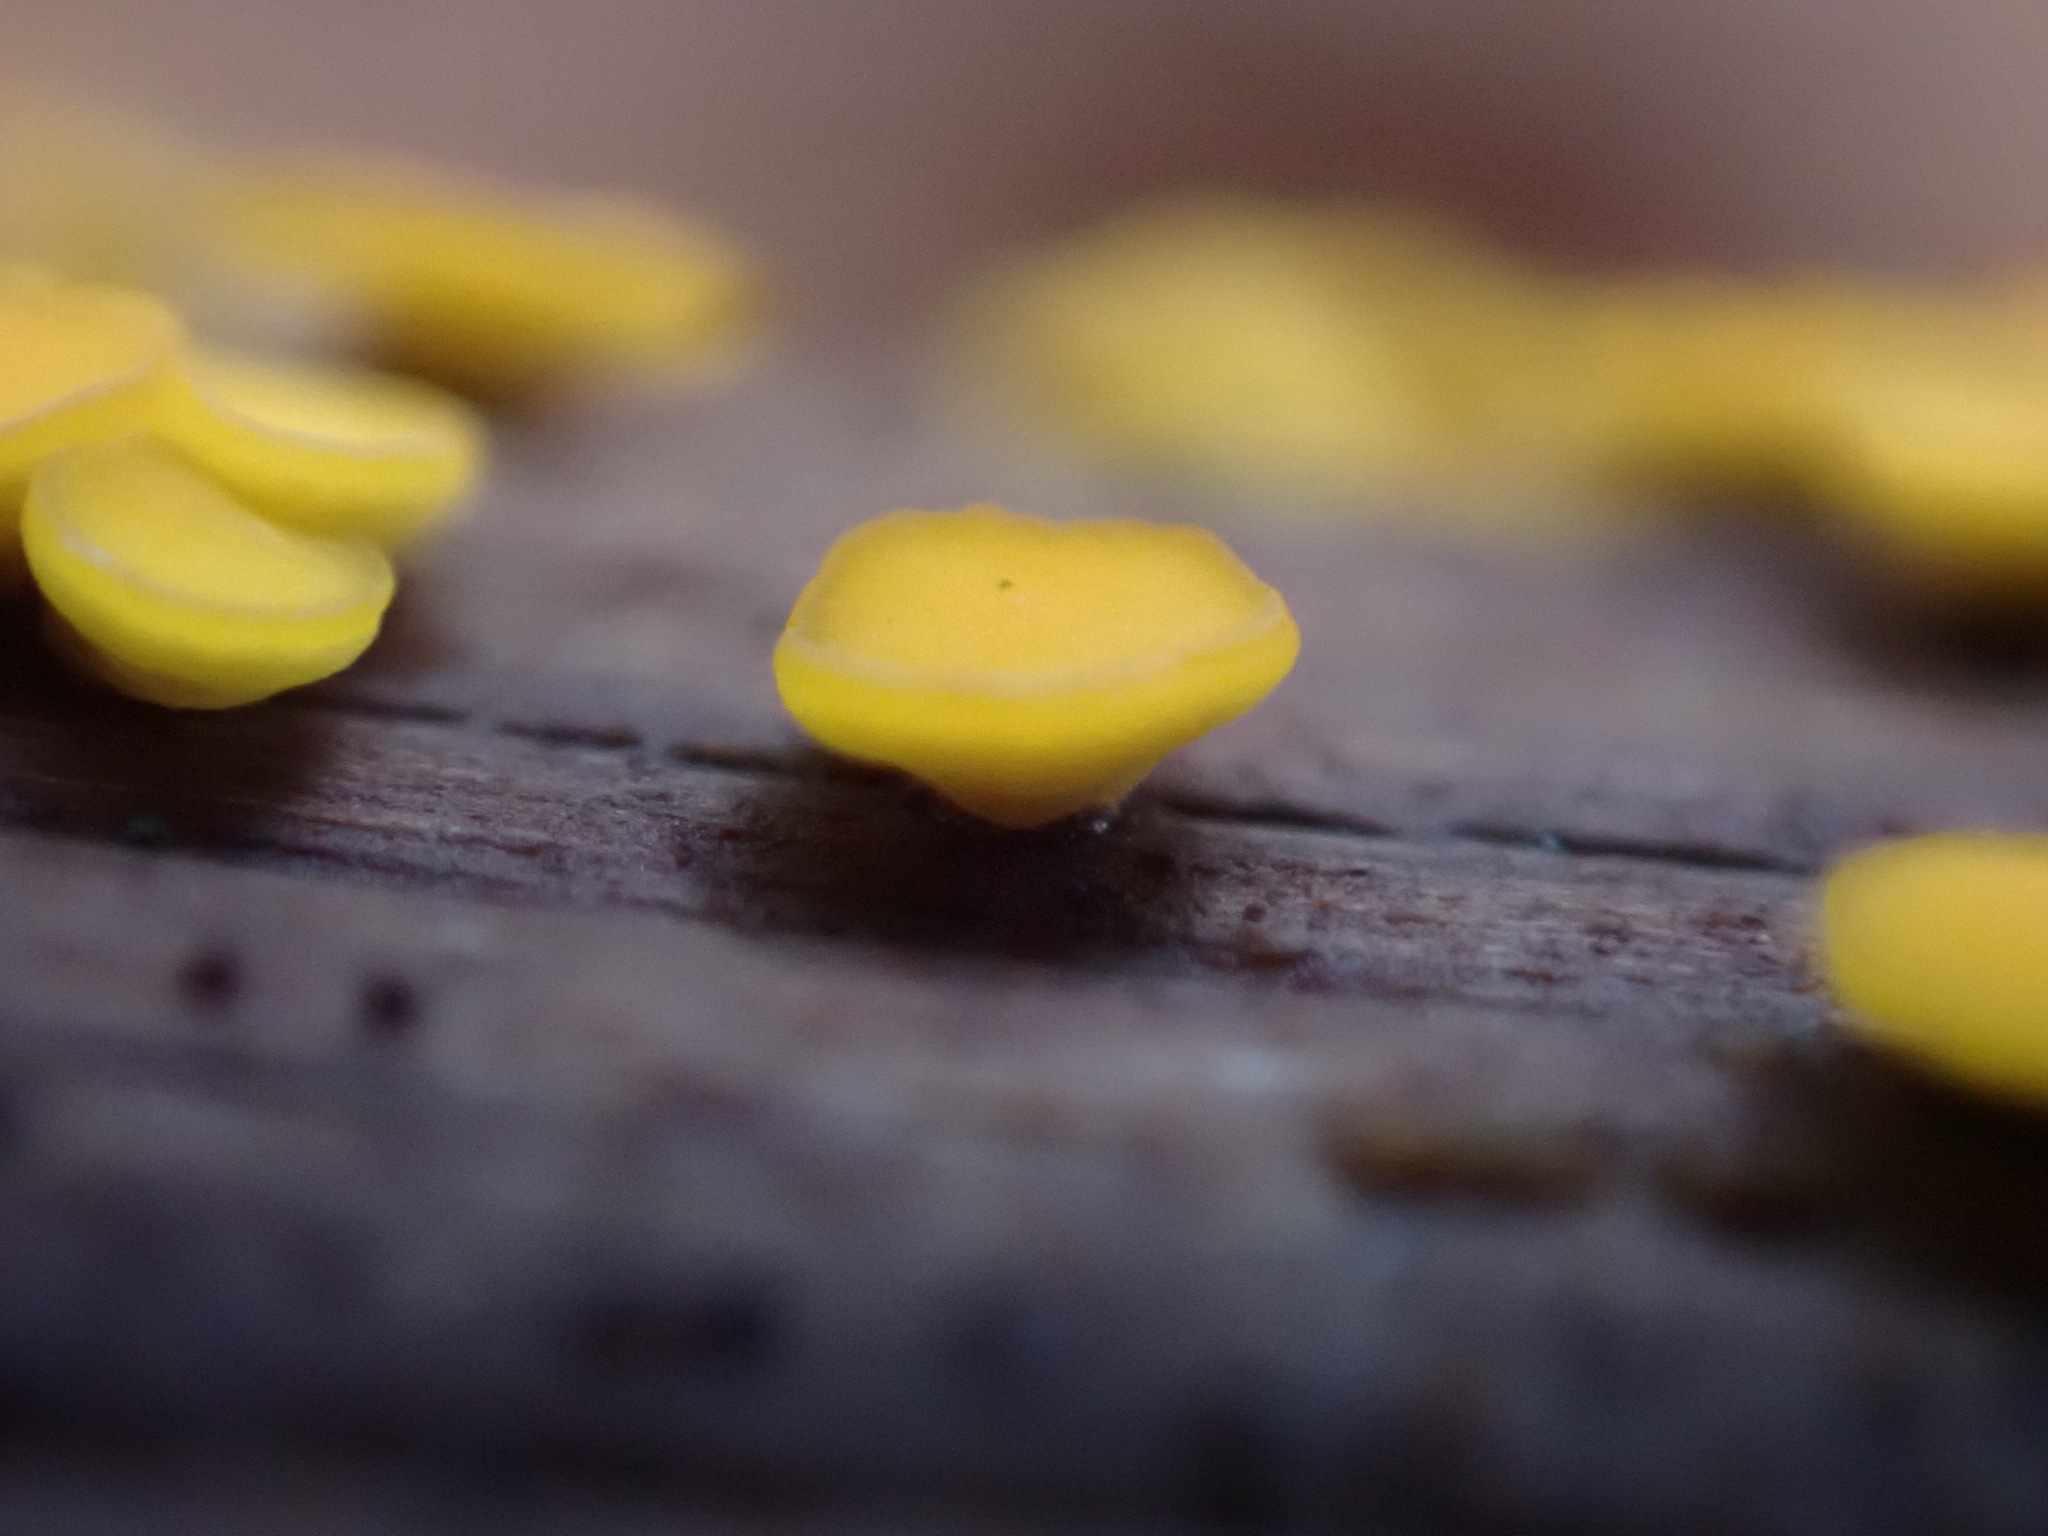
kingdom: Fungi
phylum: Ascomycota
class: Leotiomycetes
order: Helotiales
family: Pezizellaceae
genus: Calycina
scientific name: Calycina citrina
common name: almindelig gulskive
